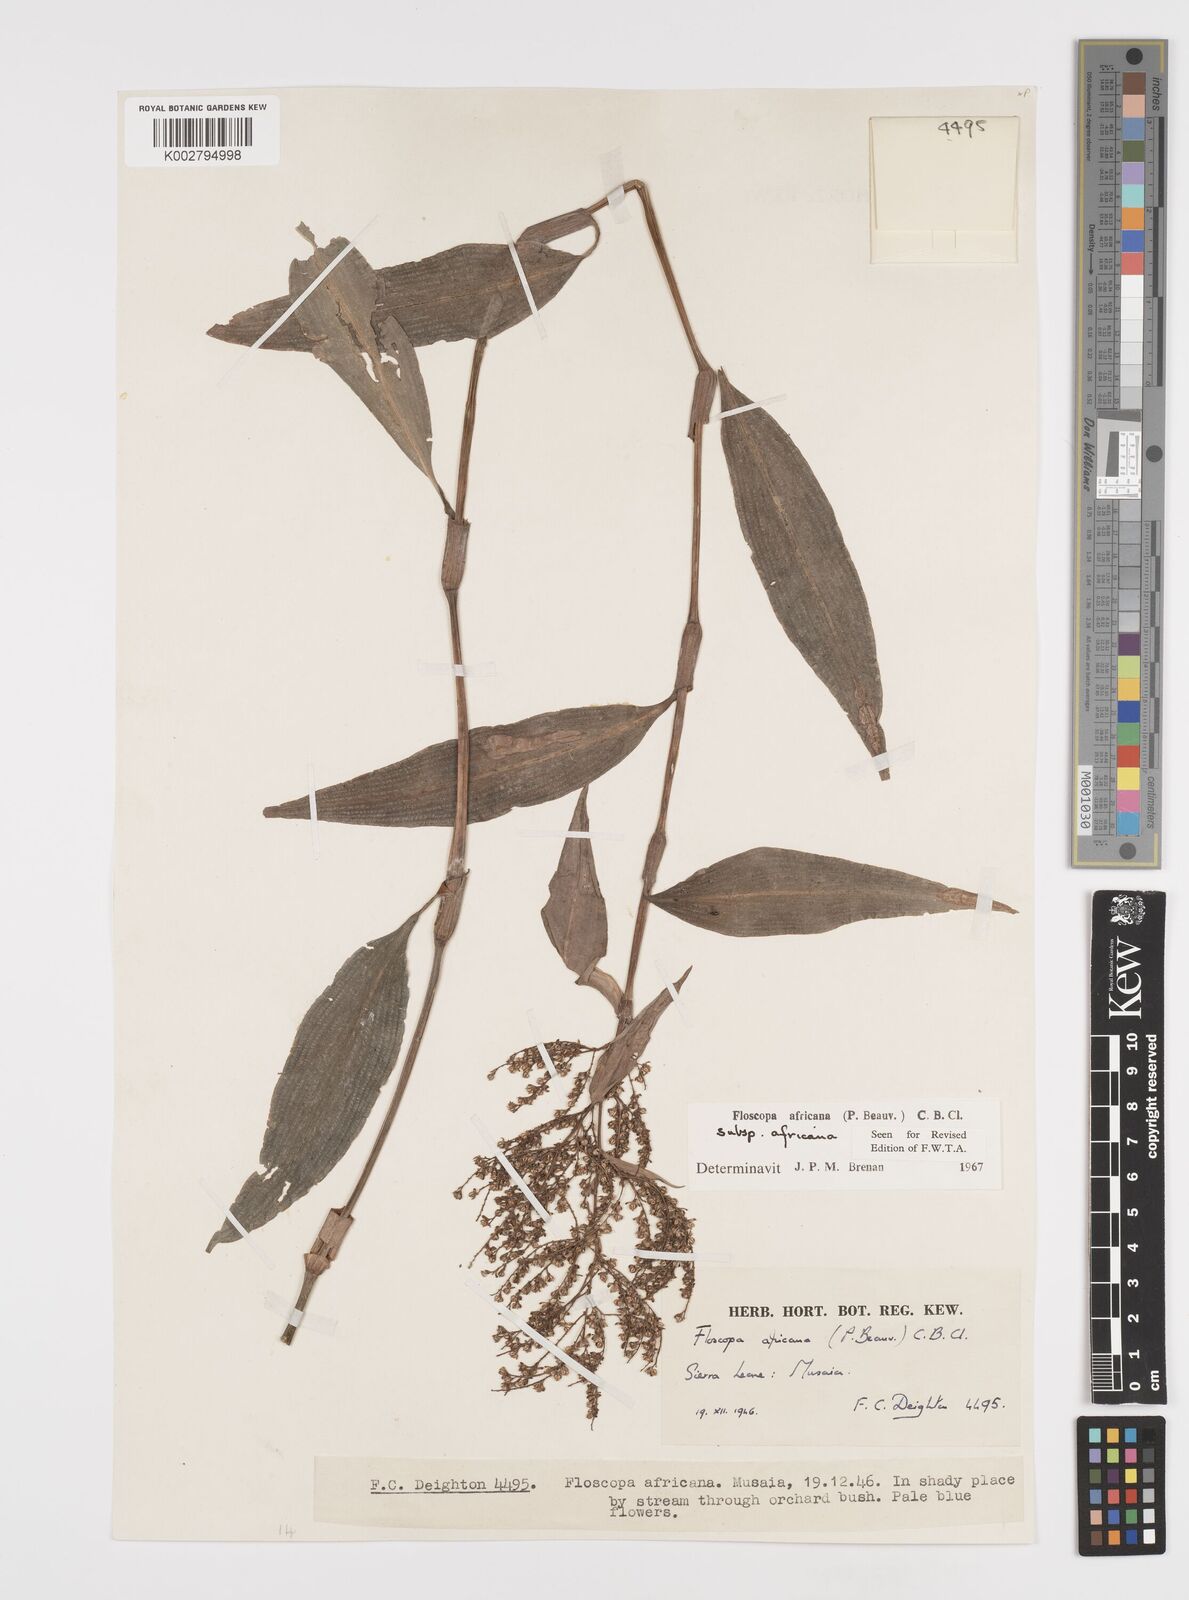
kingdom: Plantae
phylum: Tracheophyta
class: Liliopsida
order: Commelinales
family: Commelinaceae
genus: Floscopa
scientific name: Floscopa africana
